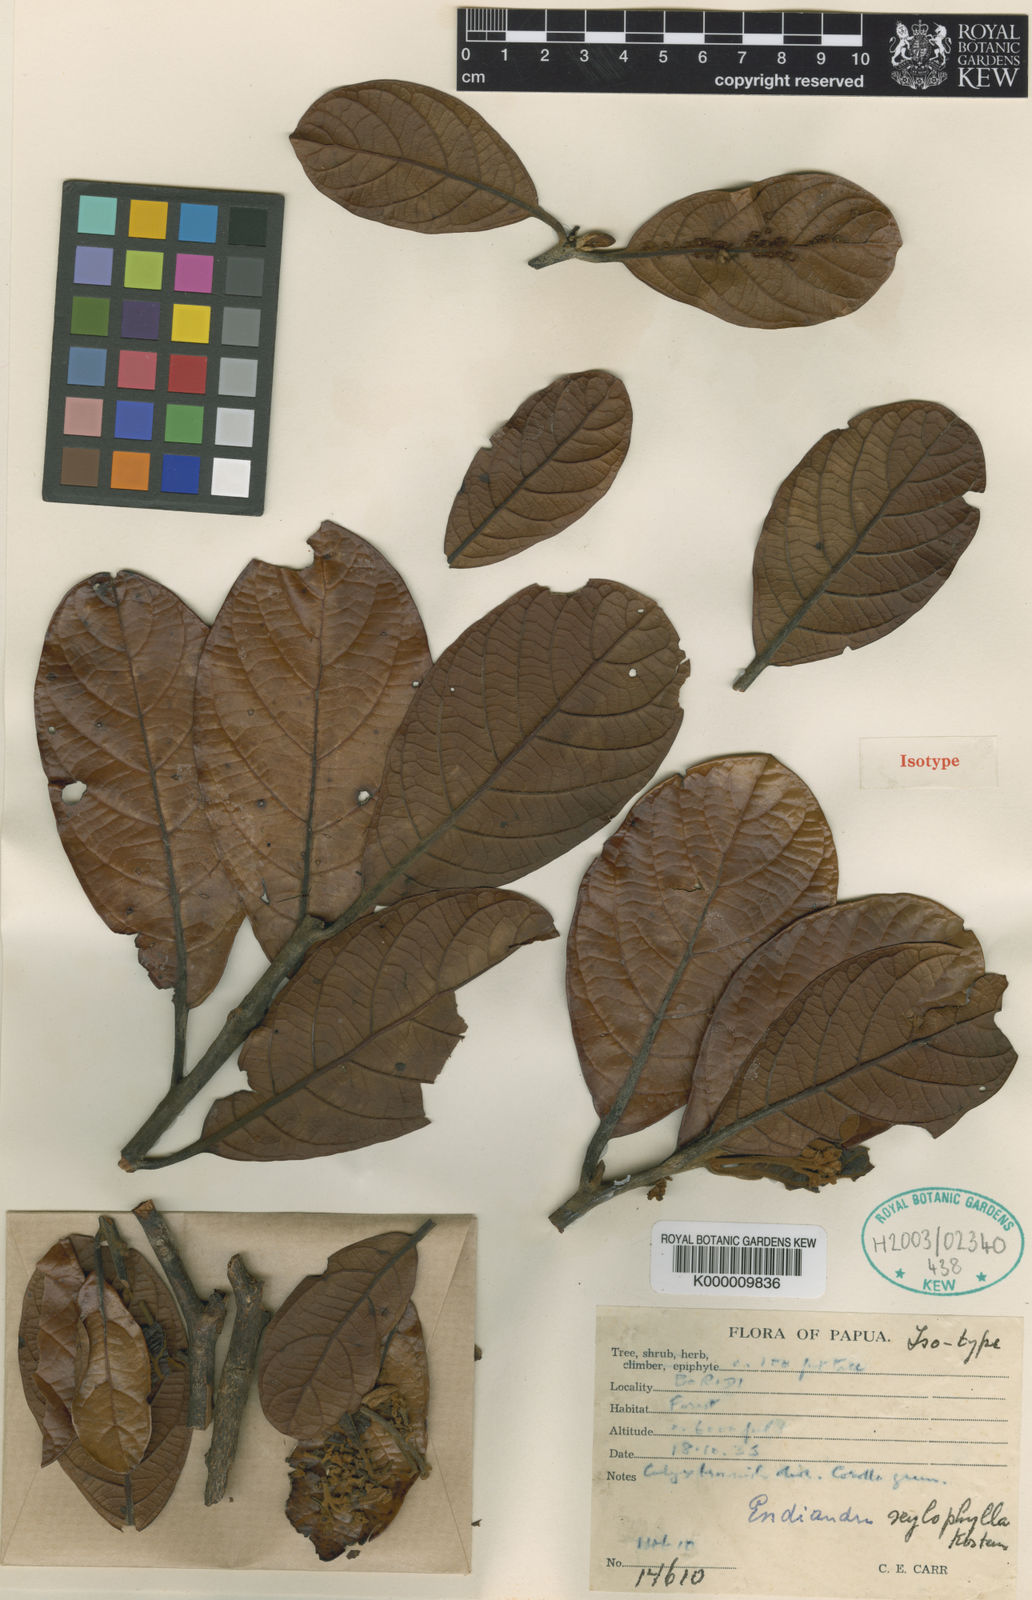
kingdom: Plantae
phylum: Tracheophyta
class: Magnoliopsida
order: Laurales
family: Lauraceae
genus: Endiandra
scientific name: Endiandra xylophylla
